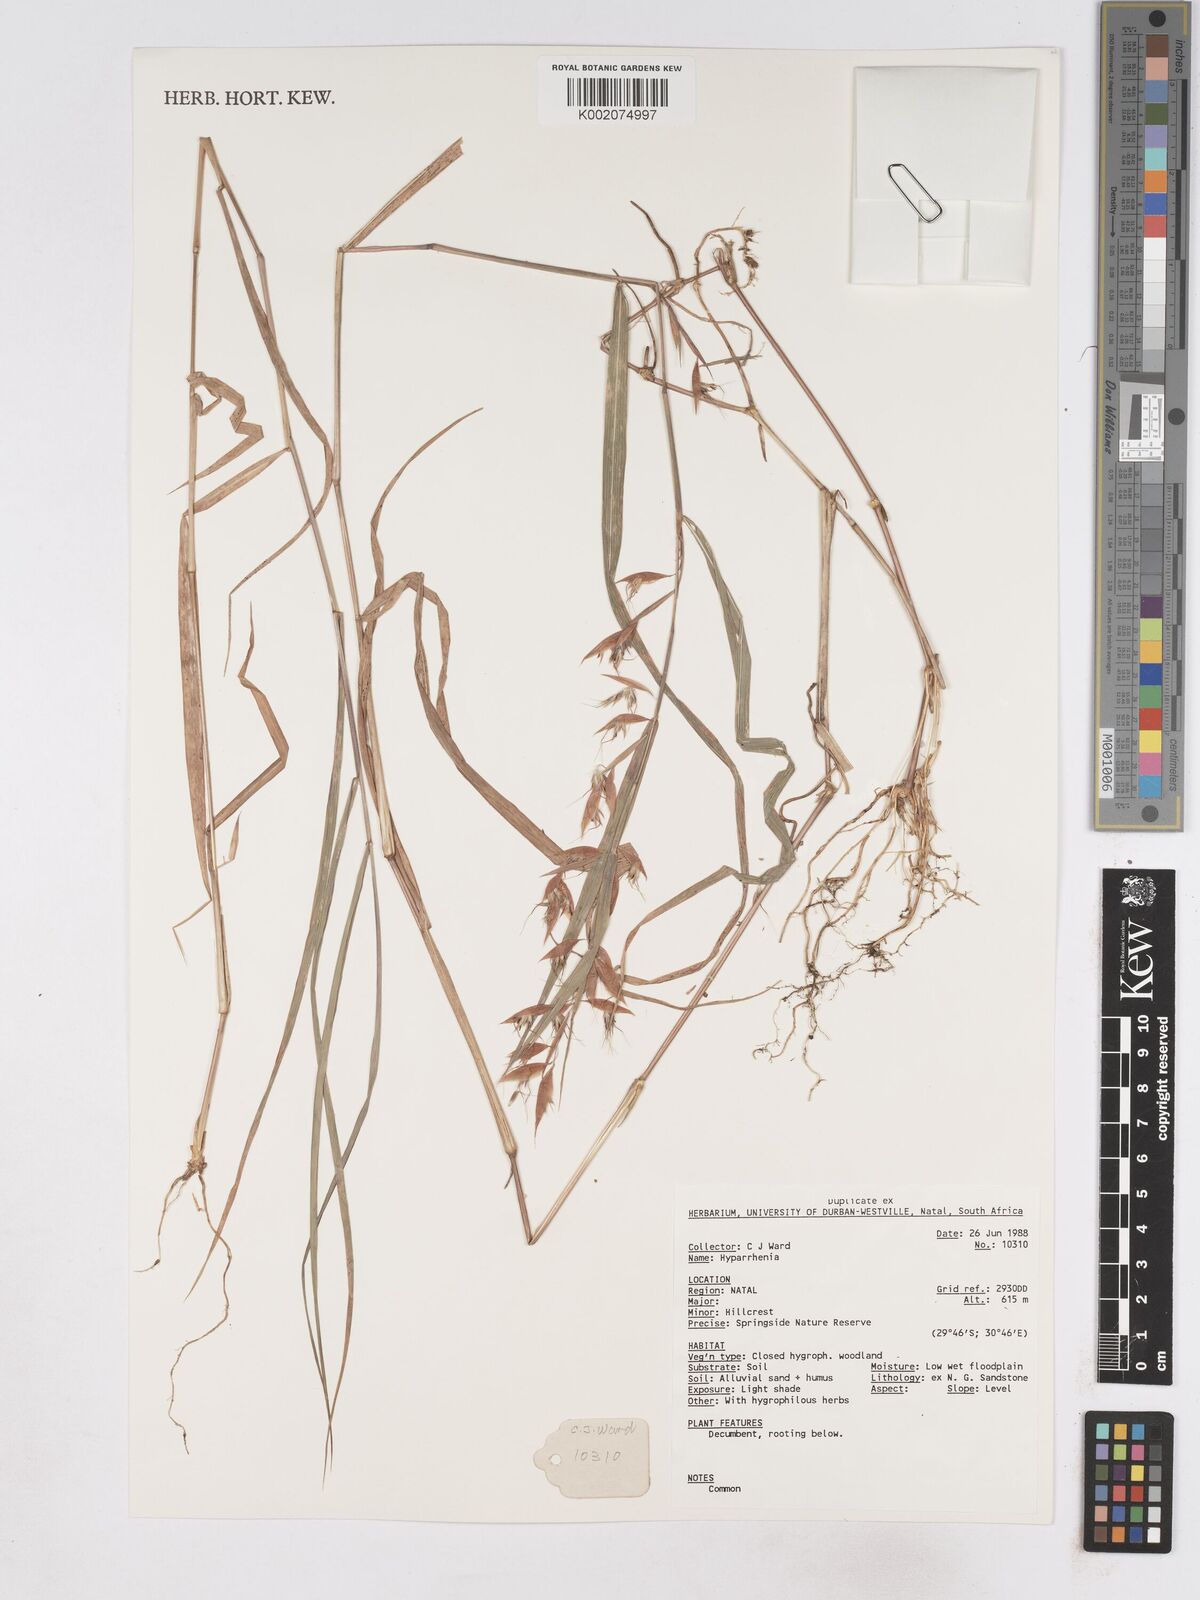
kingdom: Plantae
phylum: Tracheophyta
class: Liliopsida
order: Poales
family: Poaceae
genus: Hyparrhenia
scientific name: Hyparrhenia
